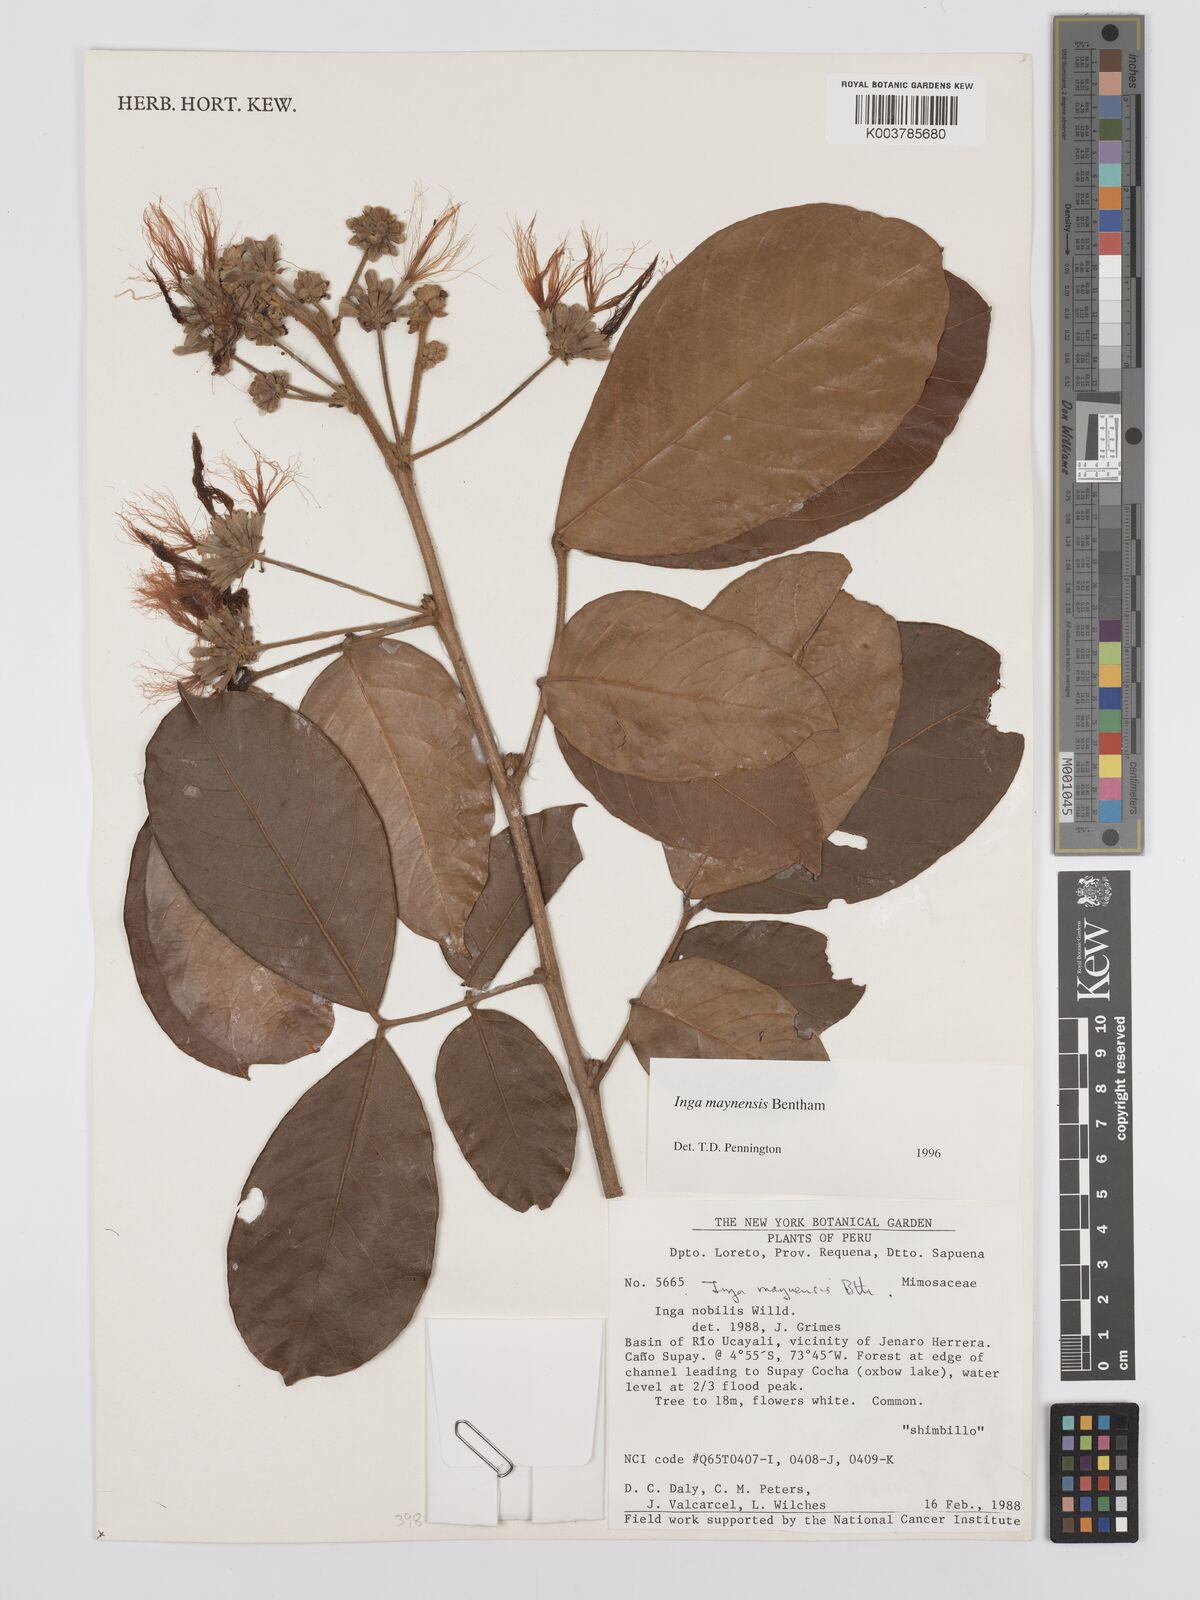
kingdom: Plantae
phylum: Tracheophyta
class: Magnoliopsida
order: Fabales
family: Fabaceae
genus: Inga
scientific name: Inga maynensis
